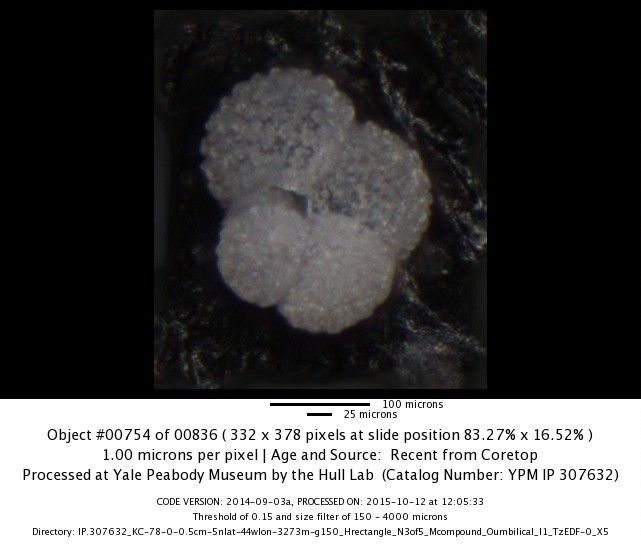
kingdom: Chromista
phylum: Foraminifera
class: Globothalamea
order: Rotaliida
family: Globigerinidae
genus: Globigerinella
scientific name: Globigerinella siphonifera
